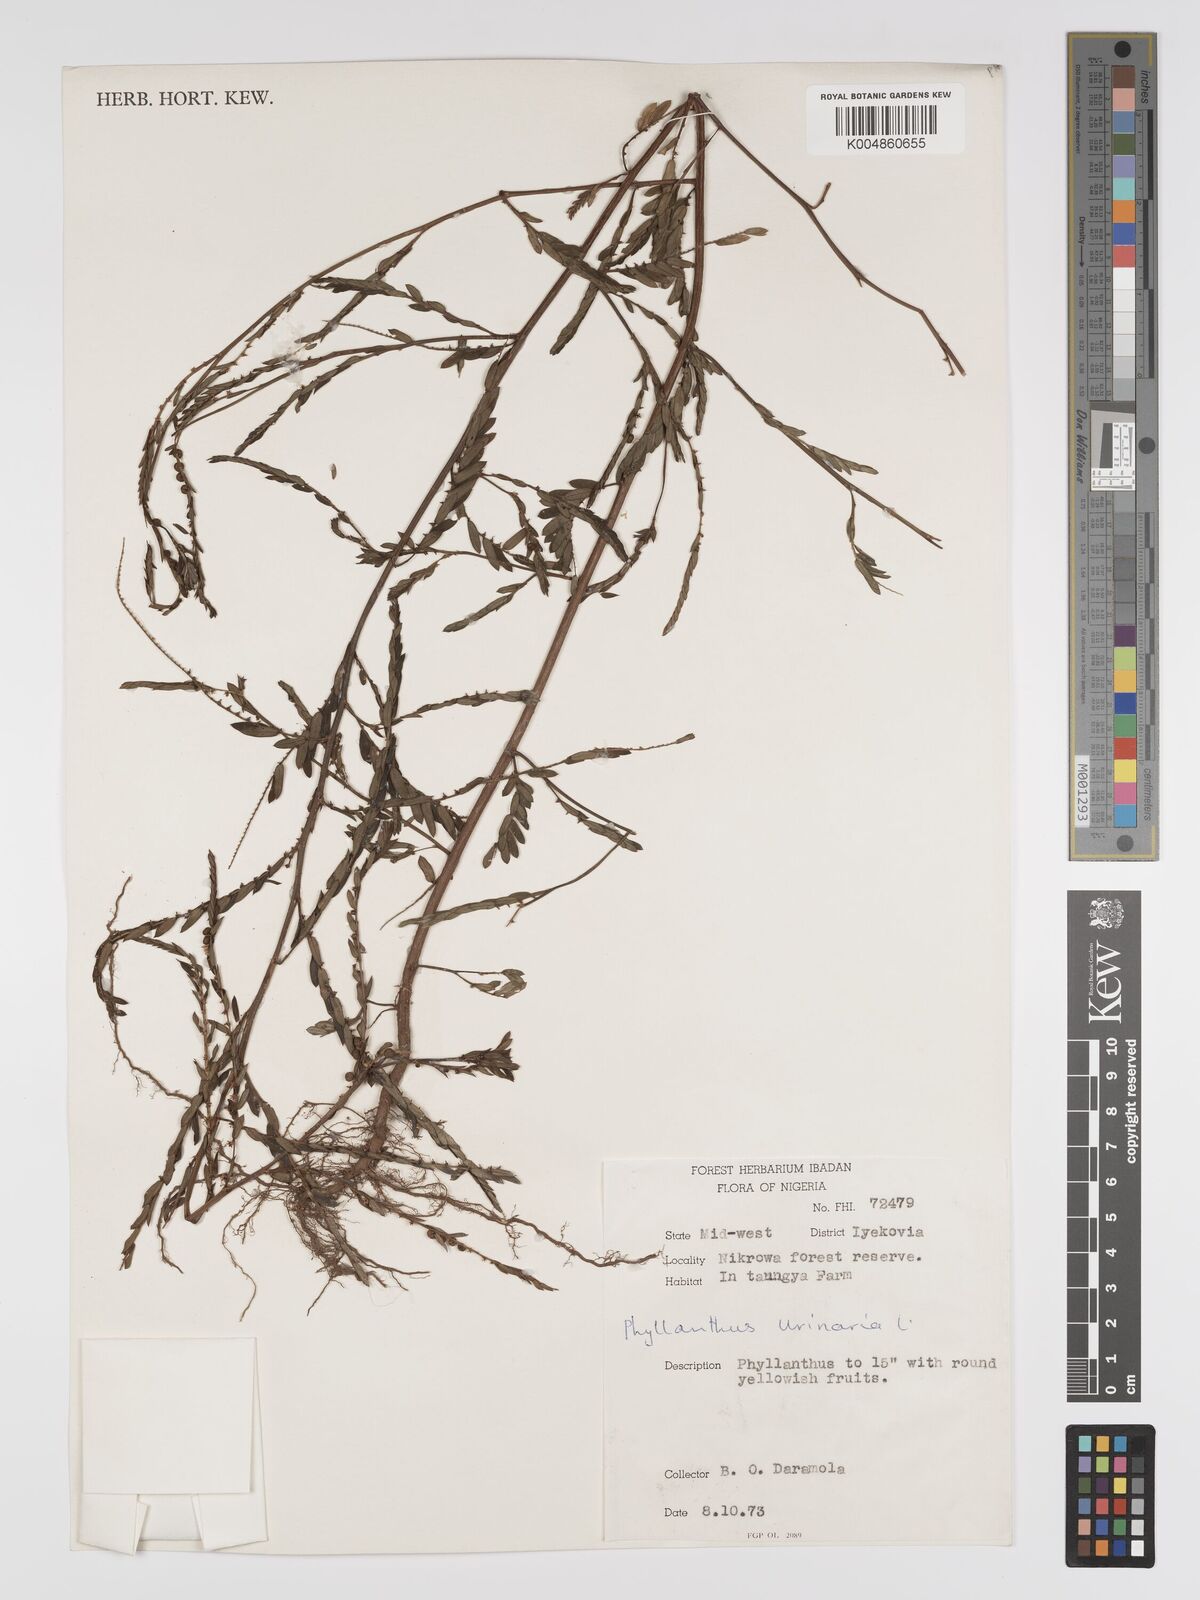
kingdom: Plantae
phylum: Tracheophyta
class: Magnoliopsida
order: Malpighiales
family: Phyllanthaceae
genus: Phyllanthus
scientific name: Phyllanthus urinaria
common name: Chamber bitter
